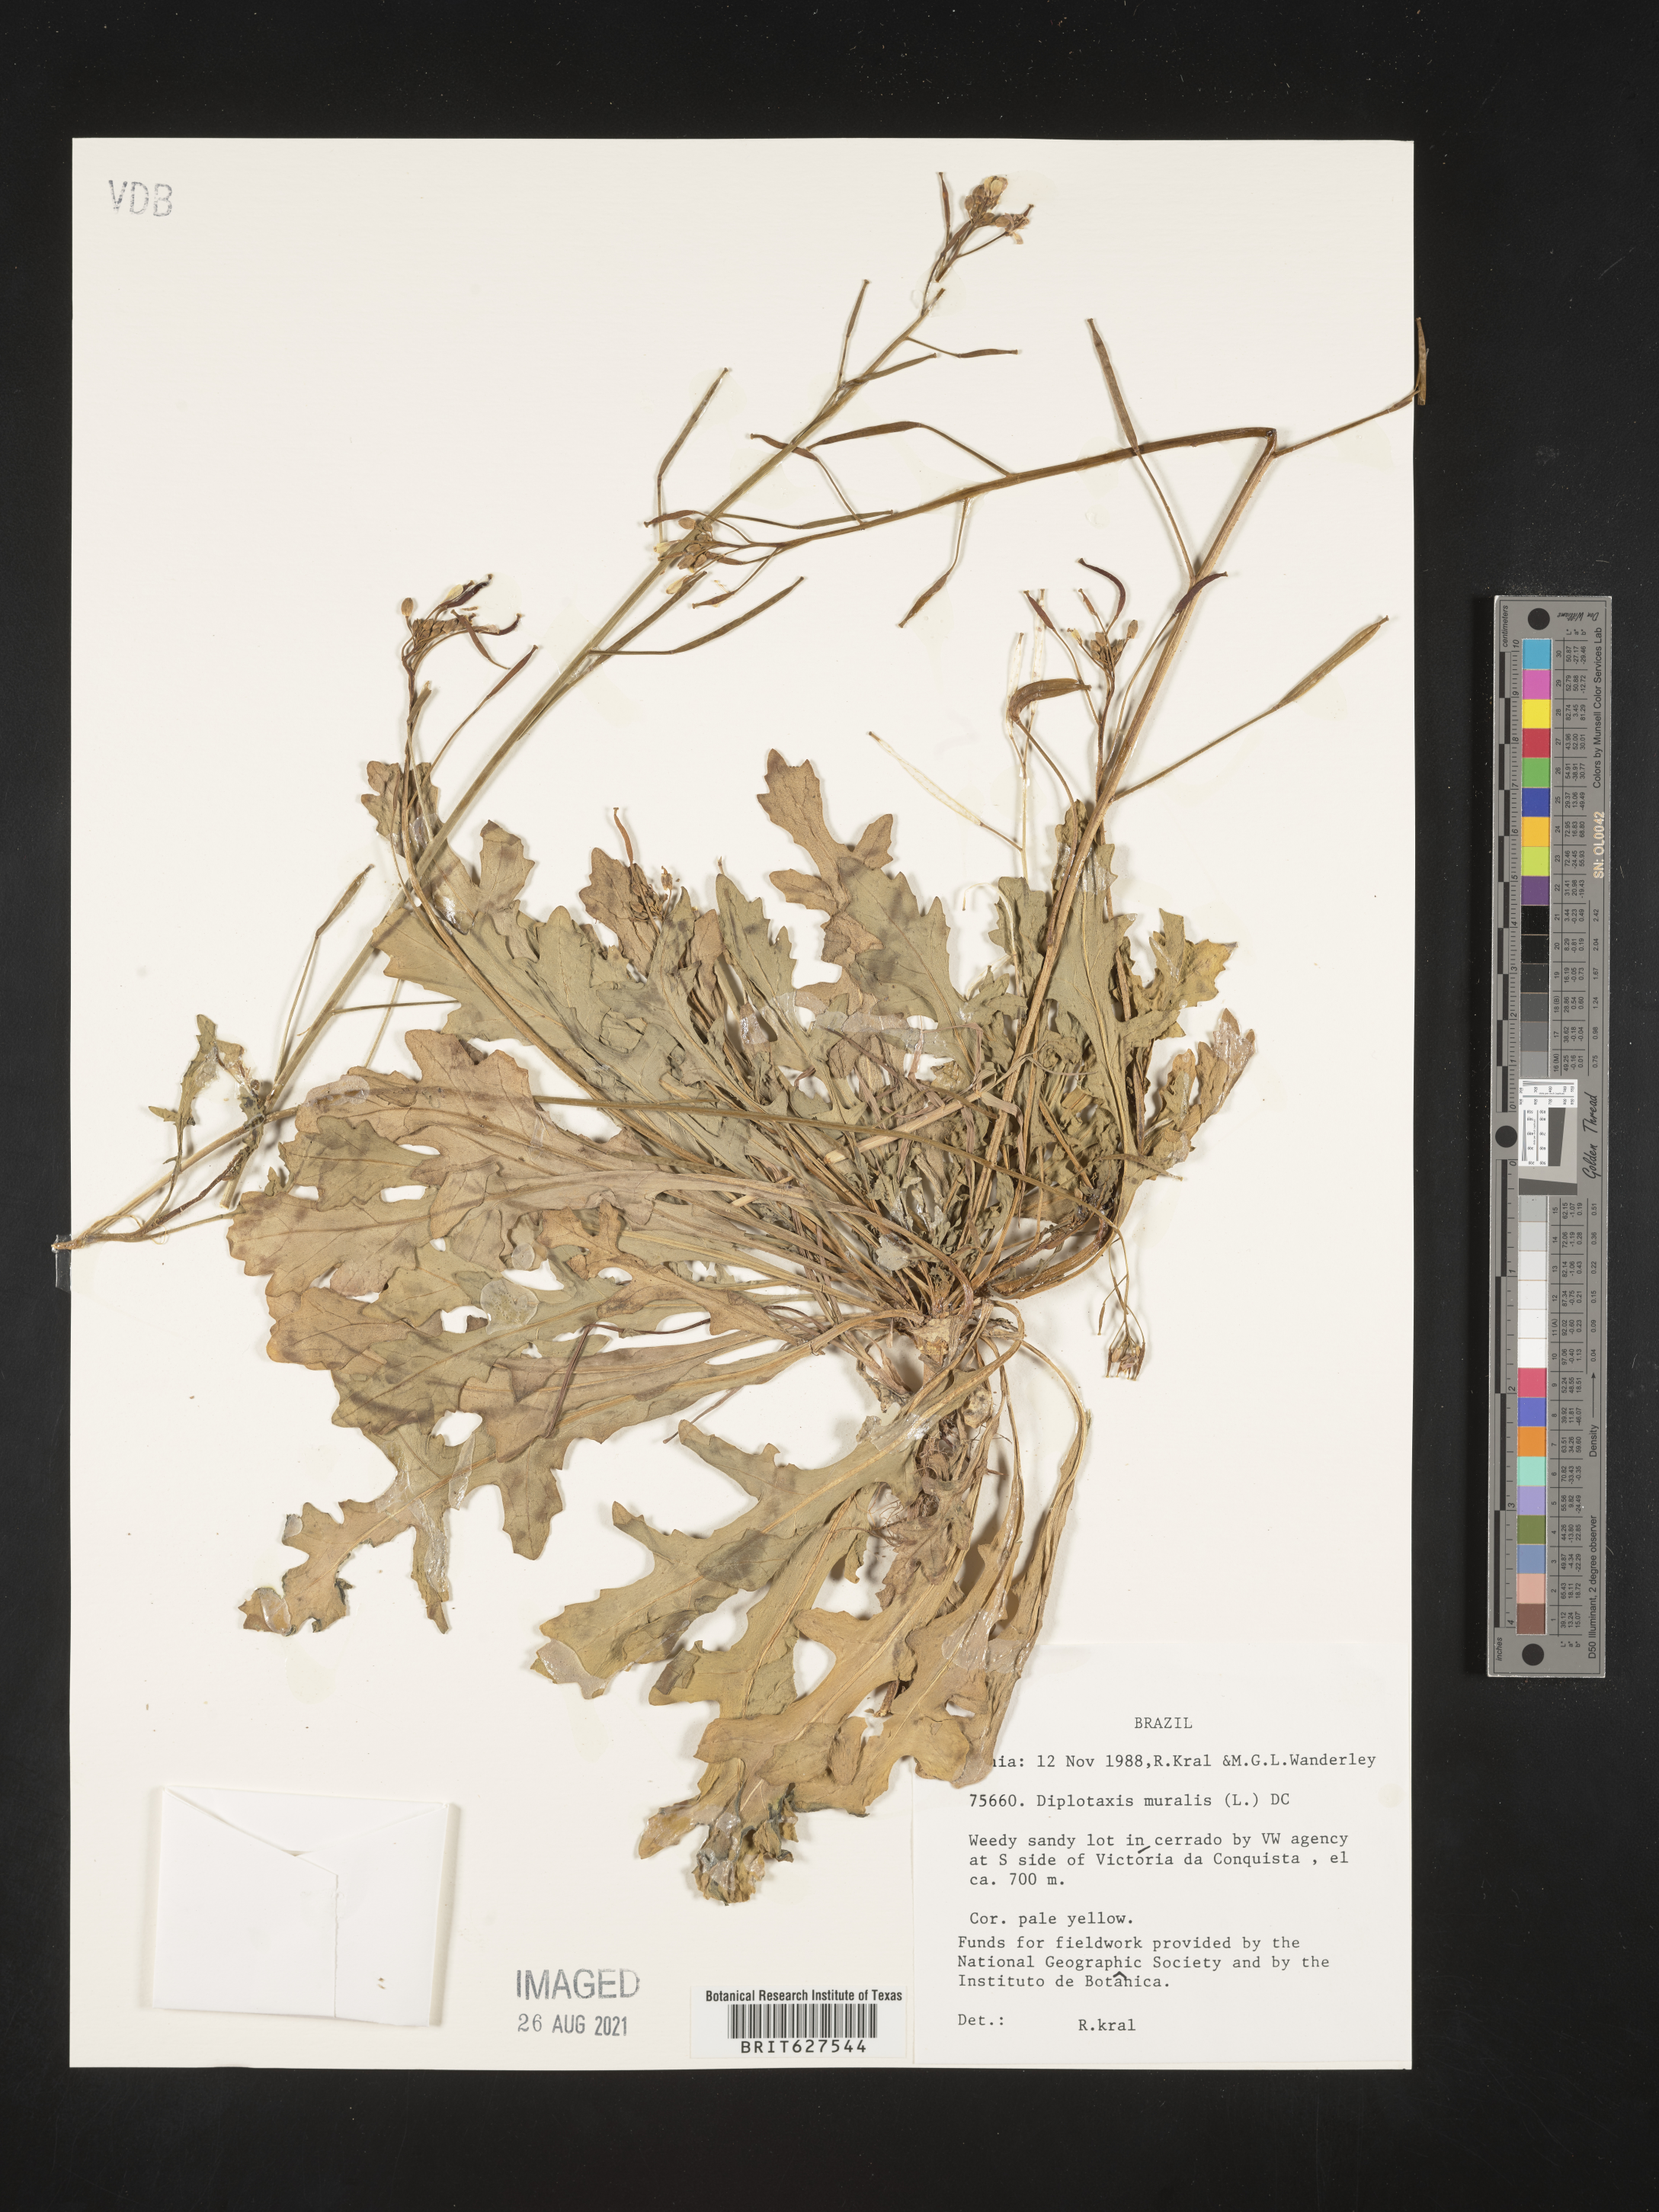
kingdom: Plantae
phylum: Tracheophyta
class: Magnoliopsida
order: Brassicales
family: Brassicaceae
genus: Diplotaxis
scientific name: Diplotaxis muralis
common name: Annual wall-rocket
